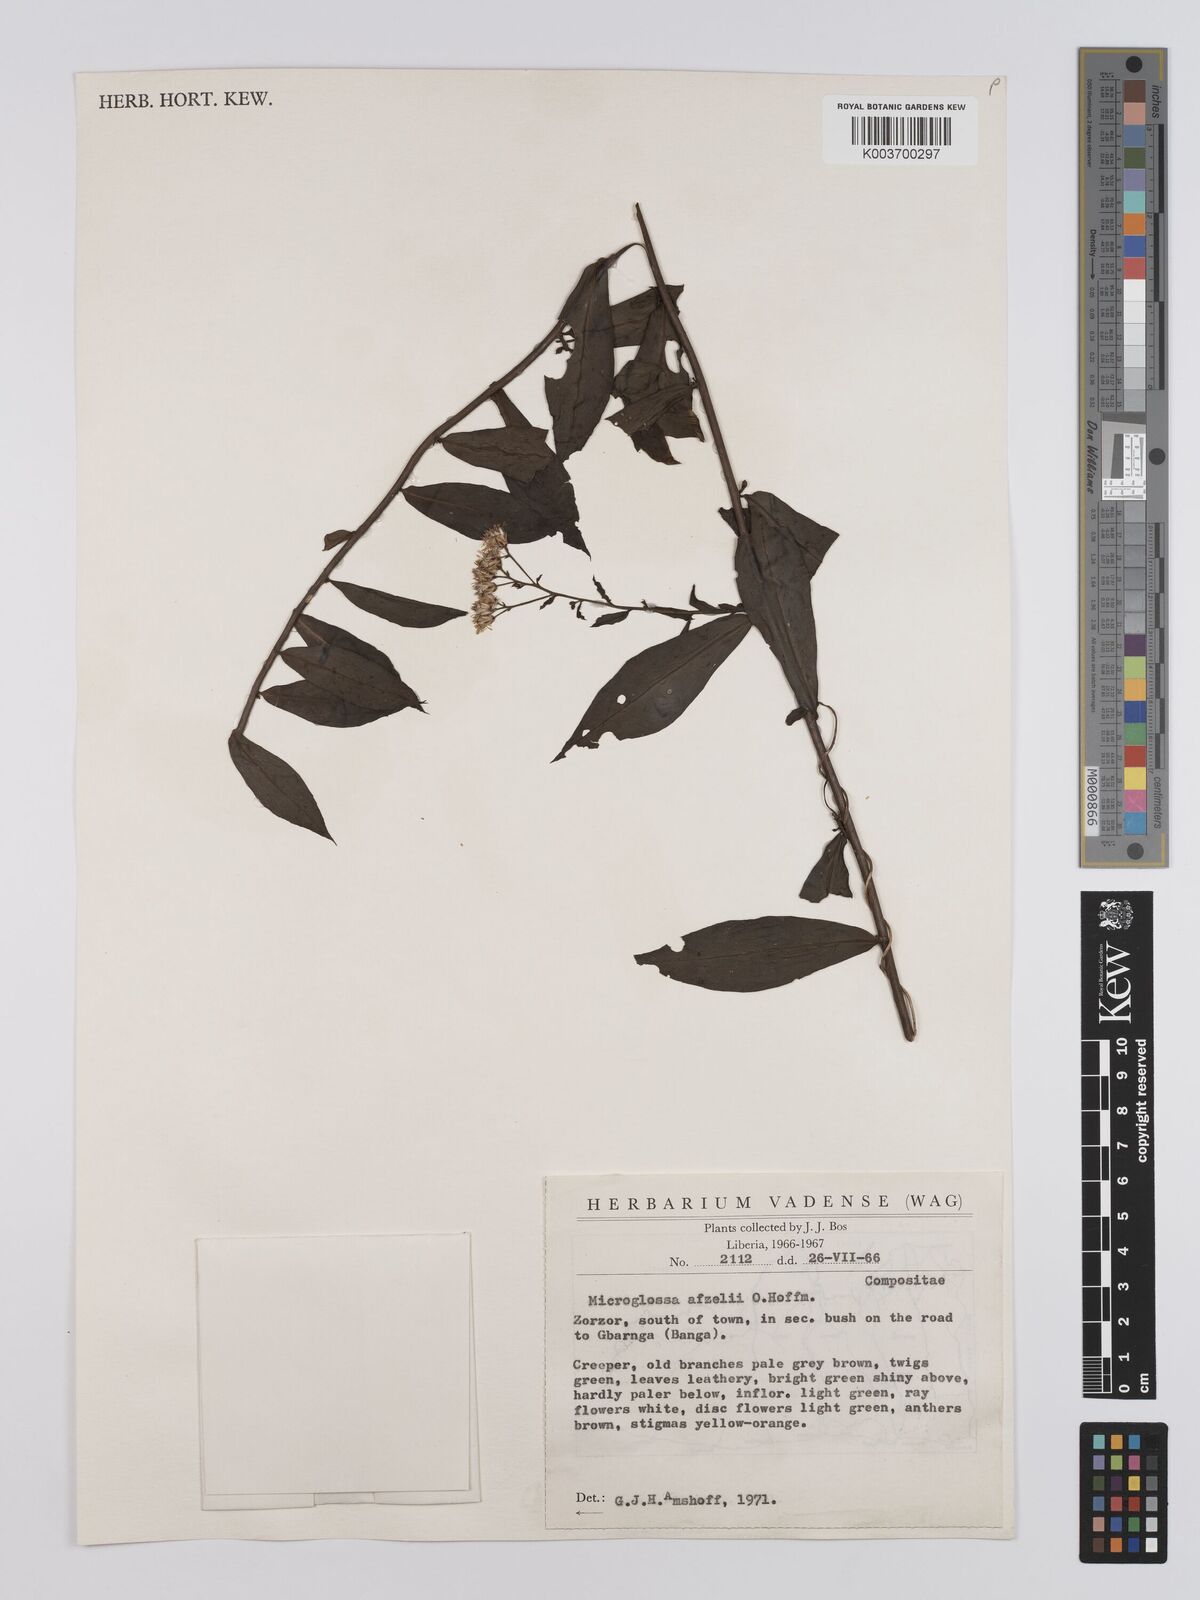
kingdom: Plantae
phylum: Tracheophyta
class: Magnoliopsida
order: Asterales
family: Asteraceae
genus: Microglossa
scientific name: Microglossa afzelii
